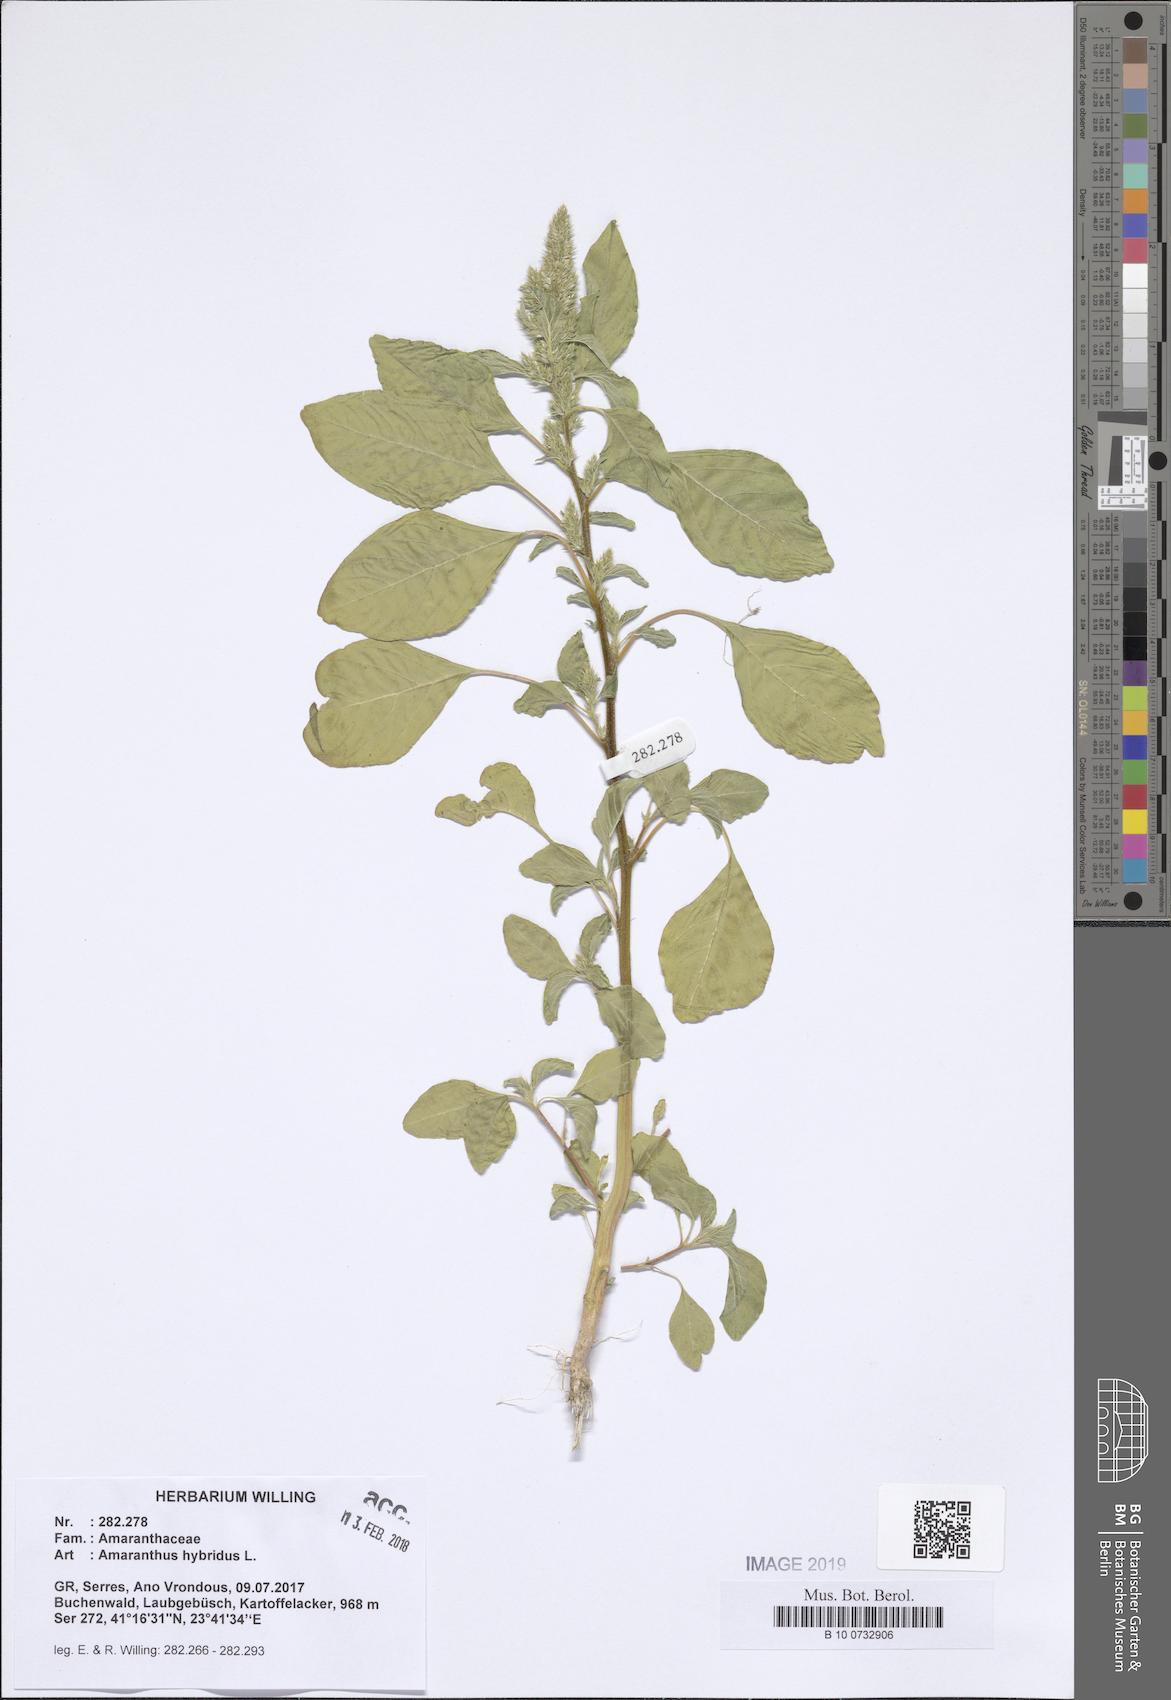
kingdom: Plantae
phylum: Tracheophyta
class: Magnoliopsida
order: Caryophyllales
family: Amaranthaceae
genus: Amaranthus
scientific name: Amaranthus hybridus
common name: Green amaranth
